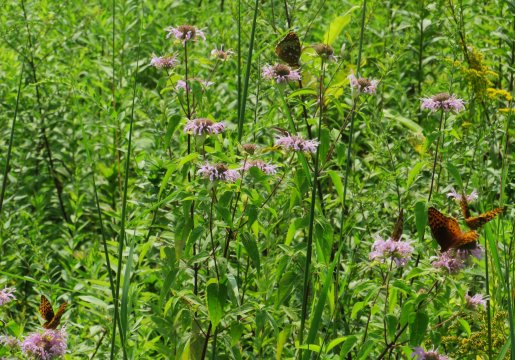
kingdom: Animalia
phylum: Arthropoda
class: Insecta
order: Lepidoptera
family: Nymphalidae
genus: Speyeria
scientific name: Speyeria cybele
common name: Great Spangled Fritillary
